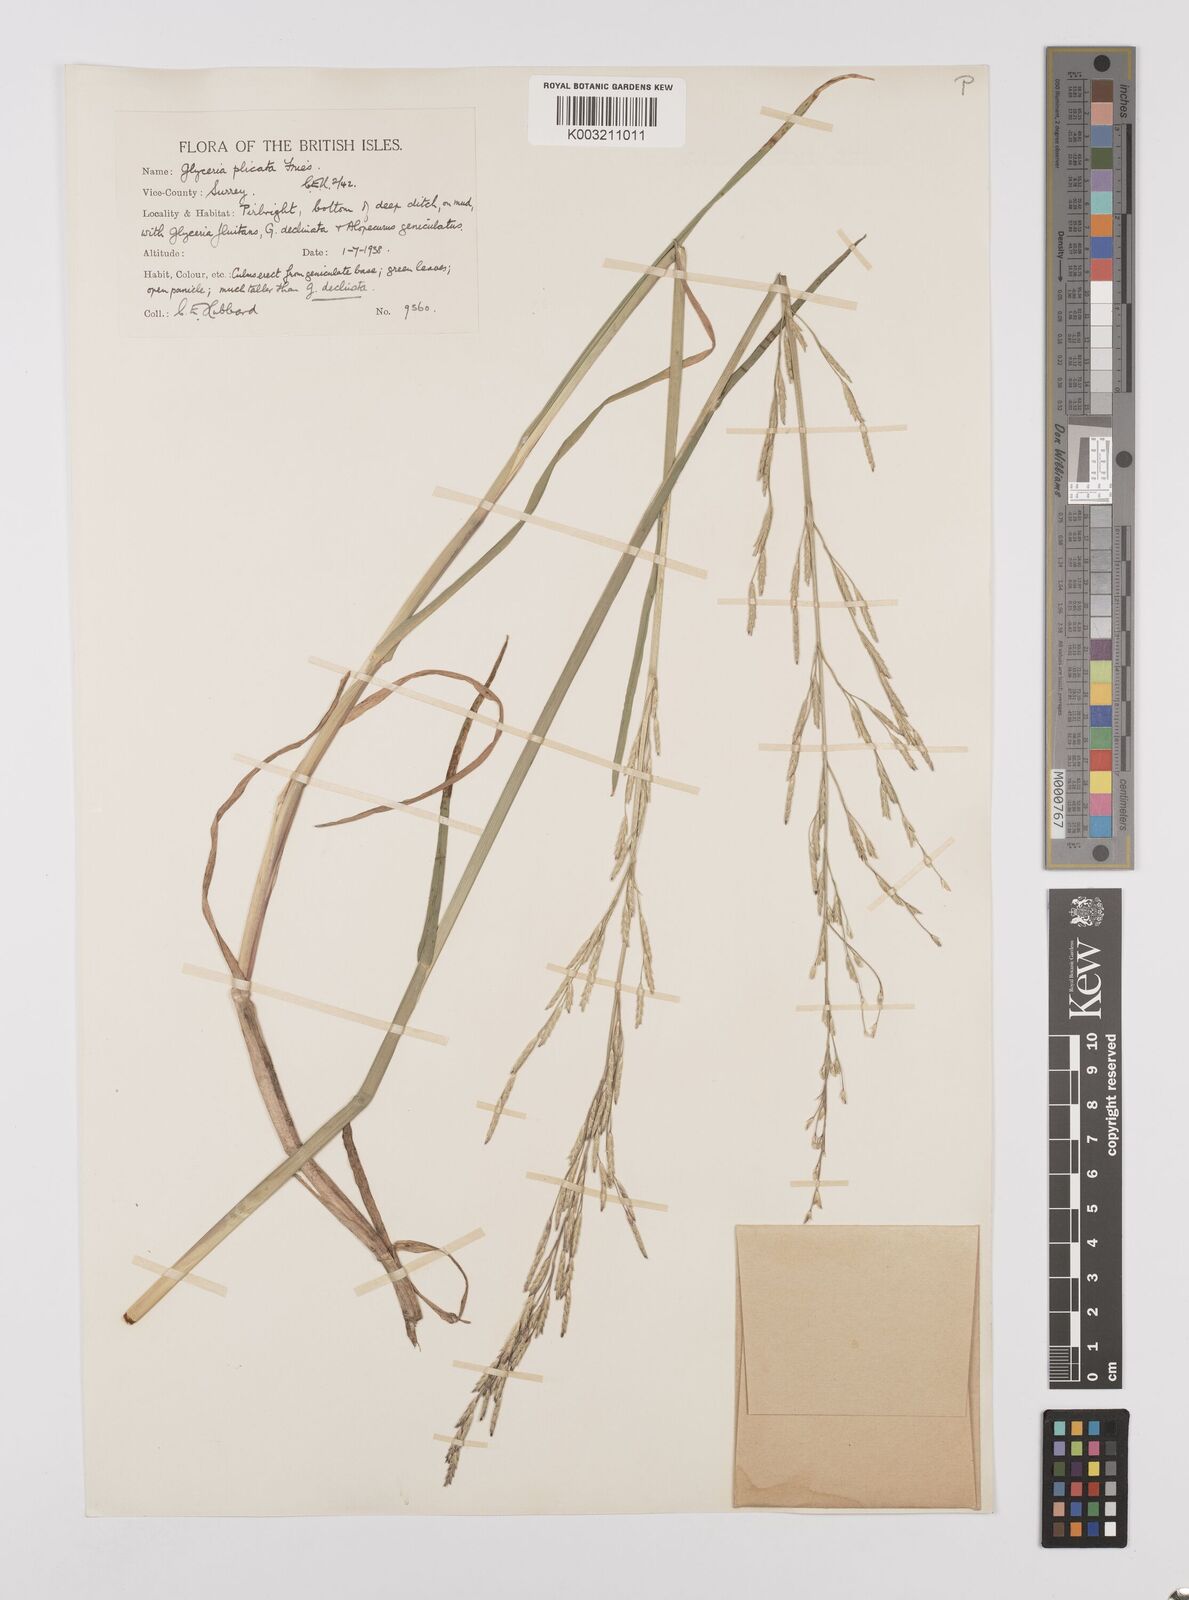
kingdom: Plantae
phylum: Tracheophyta
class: Liliopsida
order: Poales
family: Poaceae
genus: Glyceria
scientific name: Glyceria notata
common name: Plicate sweet-grass
